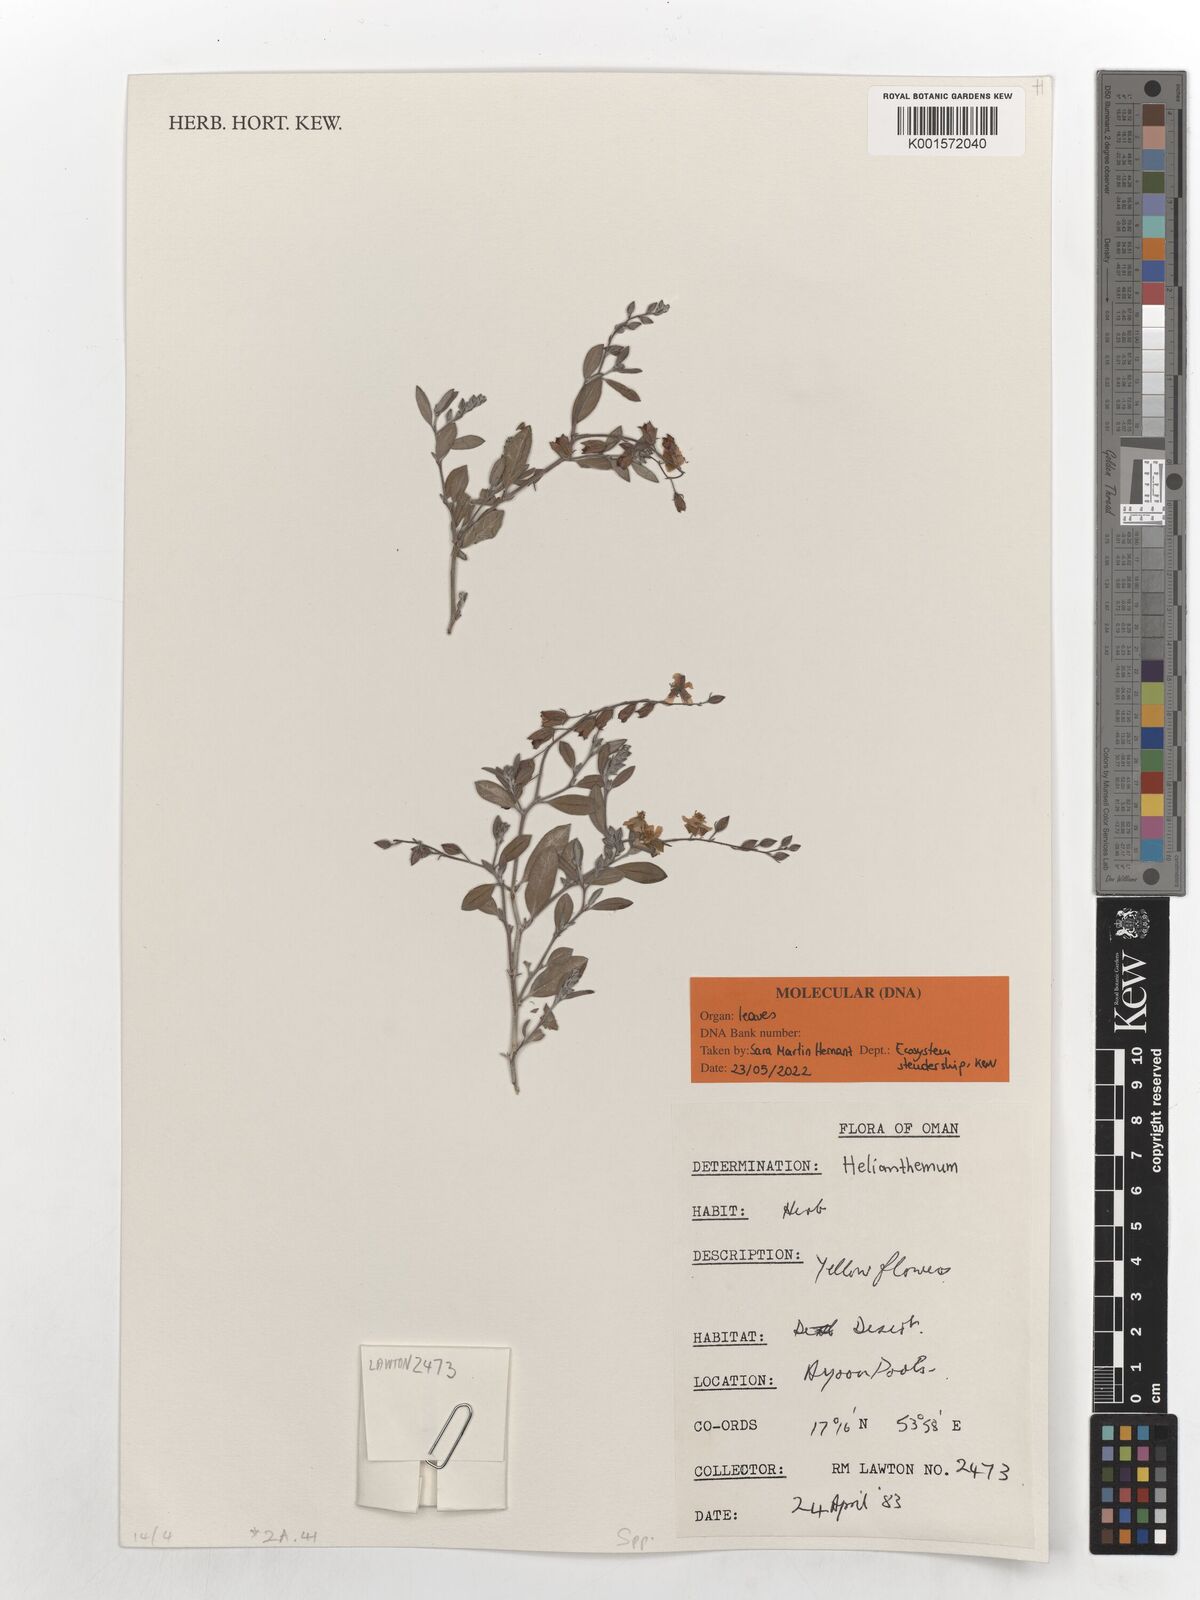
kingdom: Plantae
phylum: Tracheophyta
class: Magnoliopsida
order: Malvales
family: Cistaceae
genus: Helianthemum
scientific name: Helianthemum
